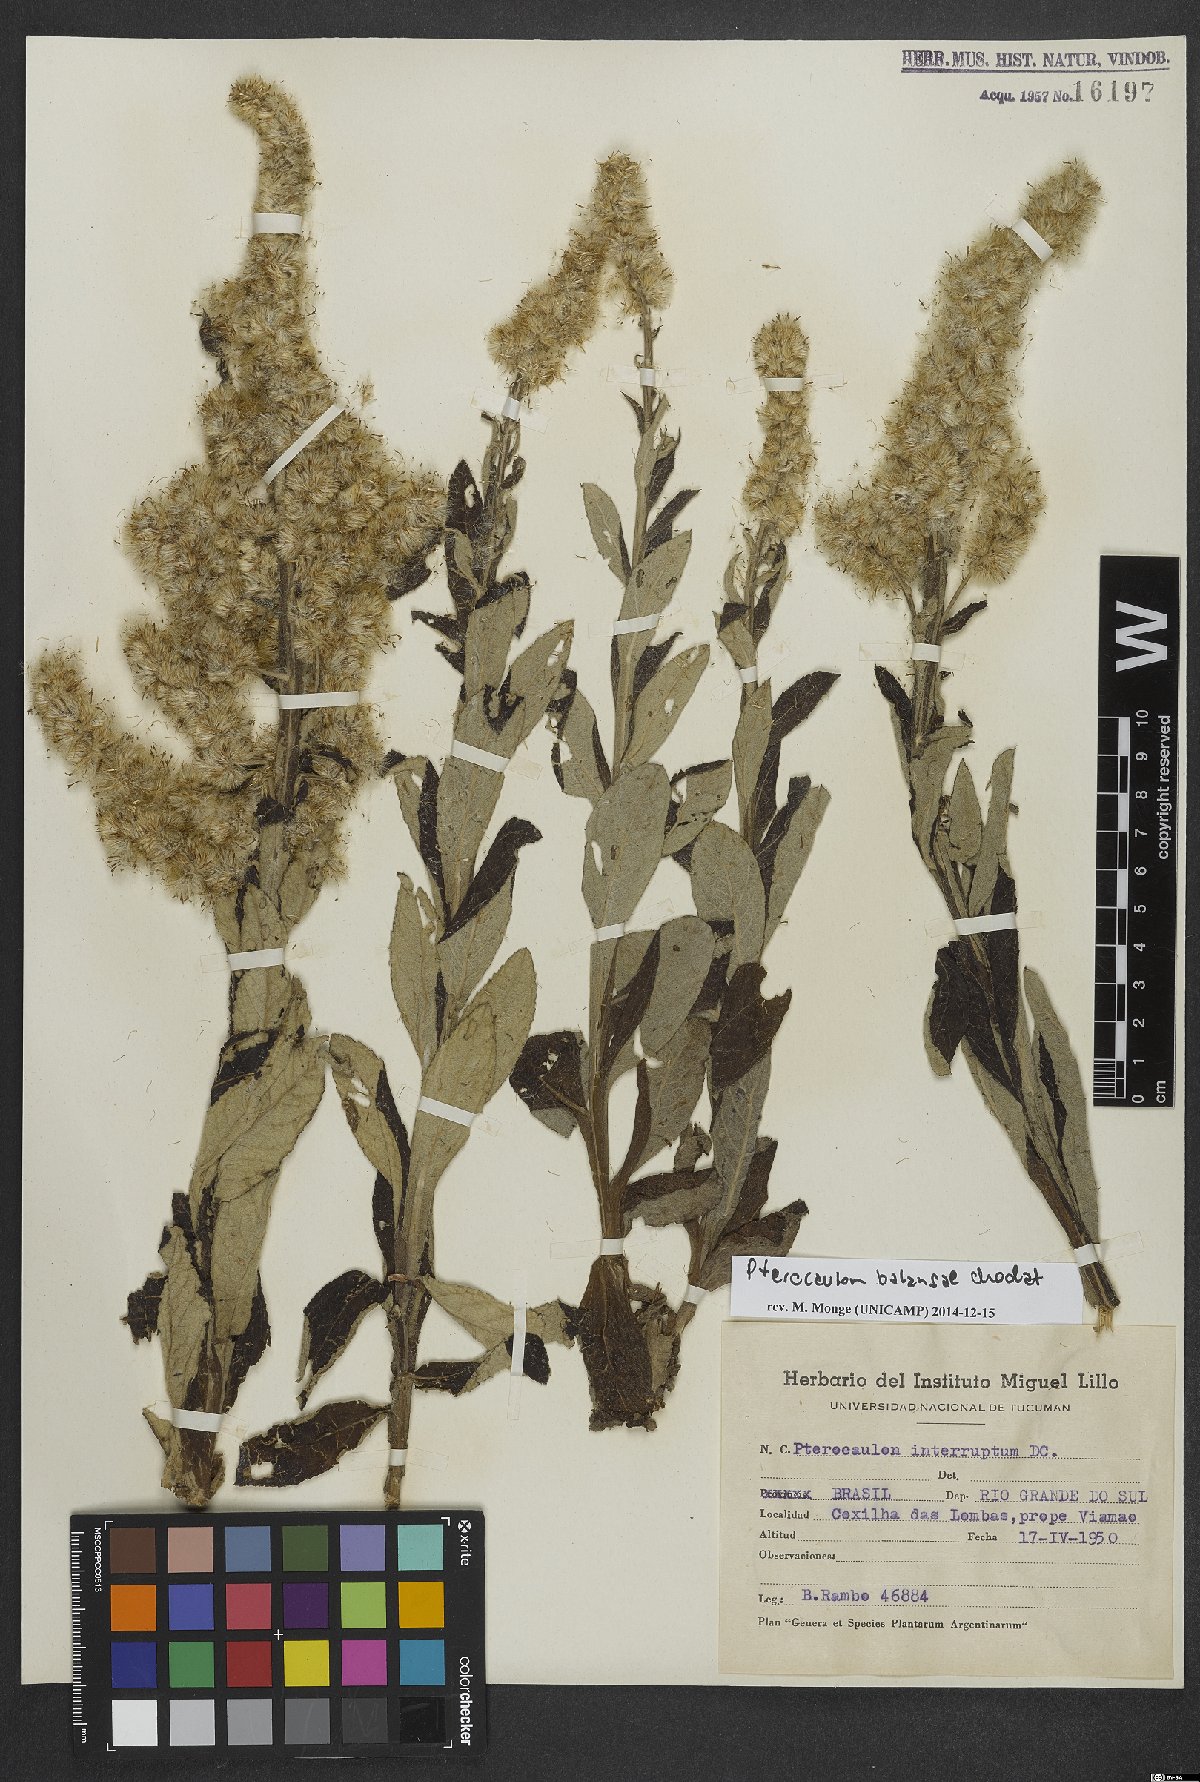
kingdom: Plantae
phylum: Tracheophyta
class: Magnoliopsida
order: Asterales
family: Asteraceae
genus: Pterocaulon
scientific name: Pterocaulon balansae
